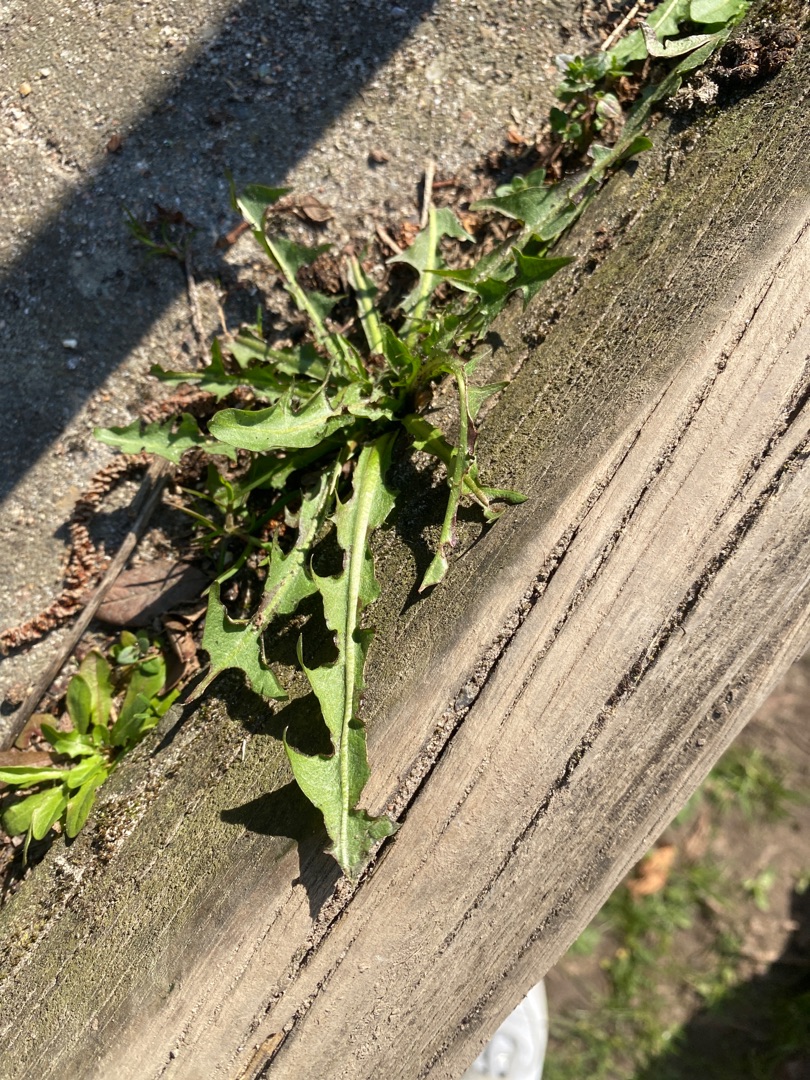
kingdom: Plantae
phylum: Tracheophyta
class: Magnoliopsida
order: Asterales
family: Asteraceae
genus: Taraxacum
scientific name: Taraxacum
